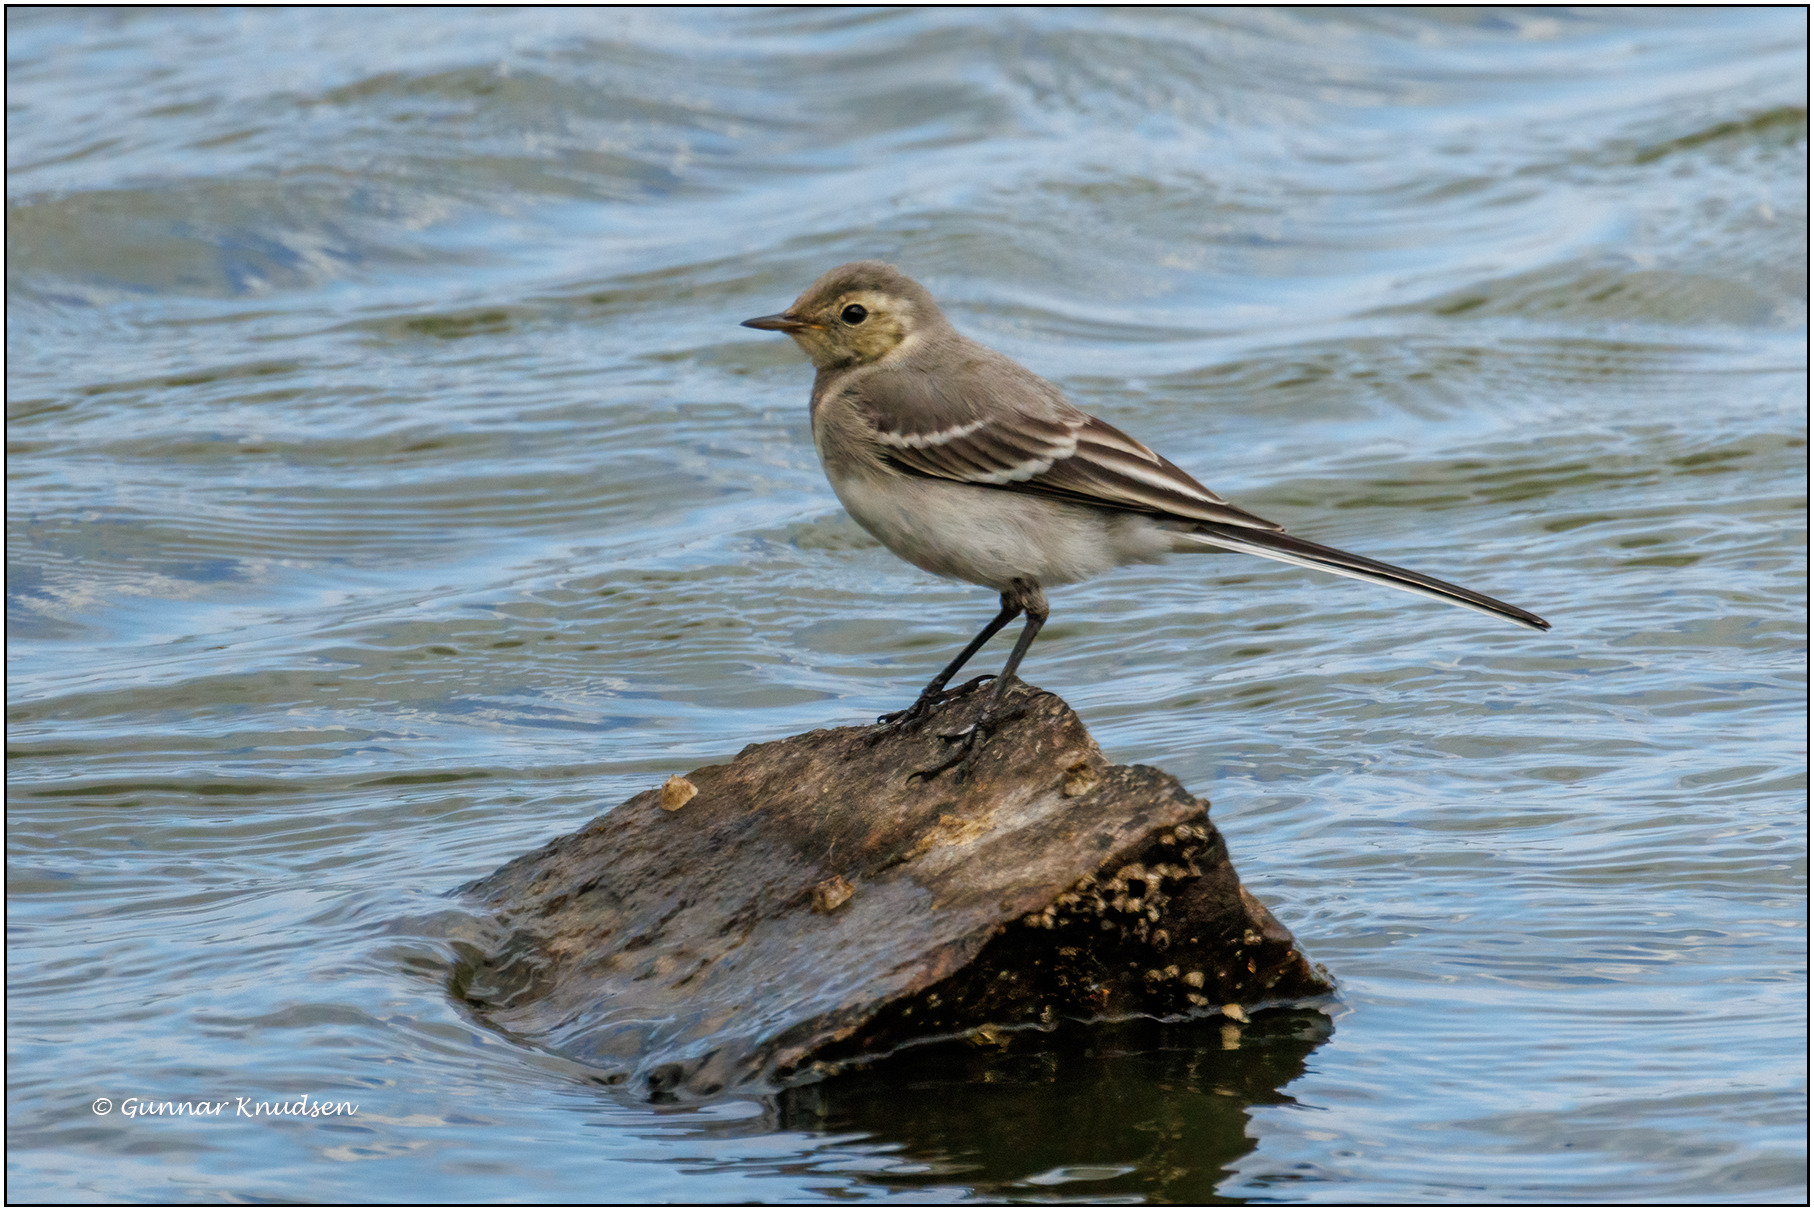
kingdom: Animalia
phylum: Chordata
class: Aves
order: Passeriformes
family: Motacillidae
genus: Motacilla
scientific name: Motacilla alba
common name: Hvid vipstjert
